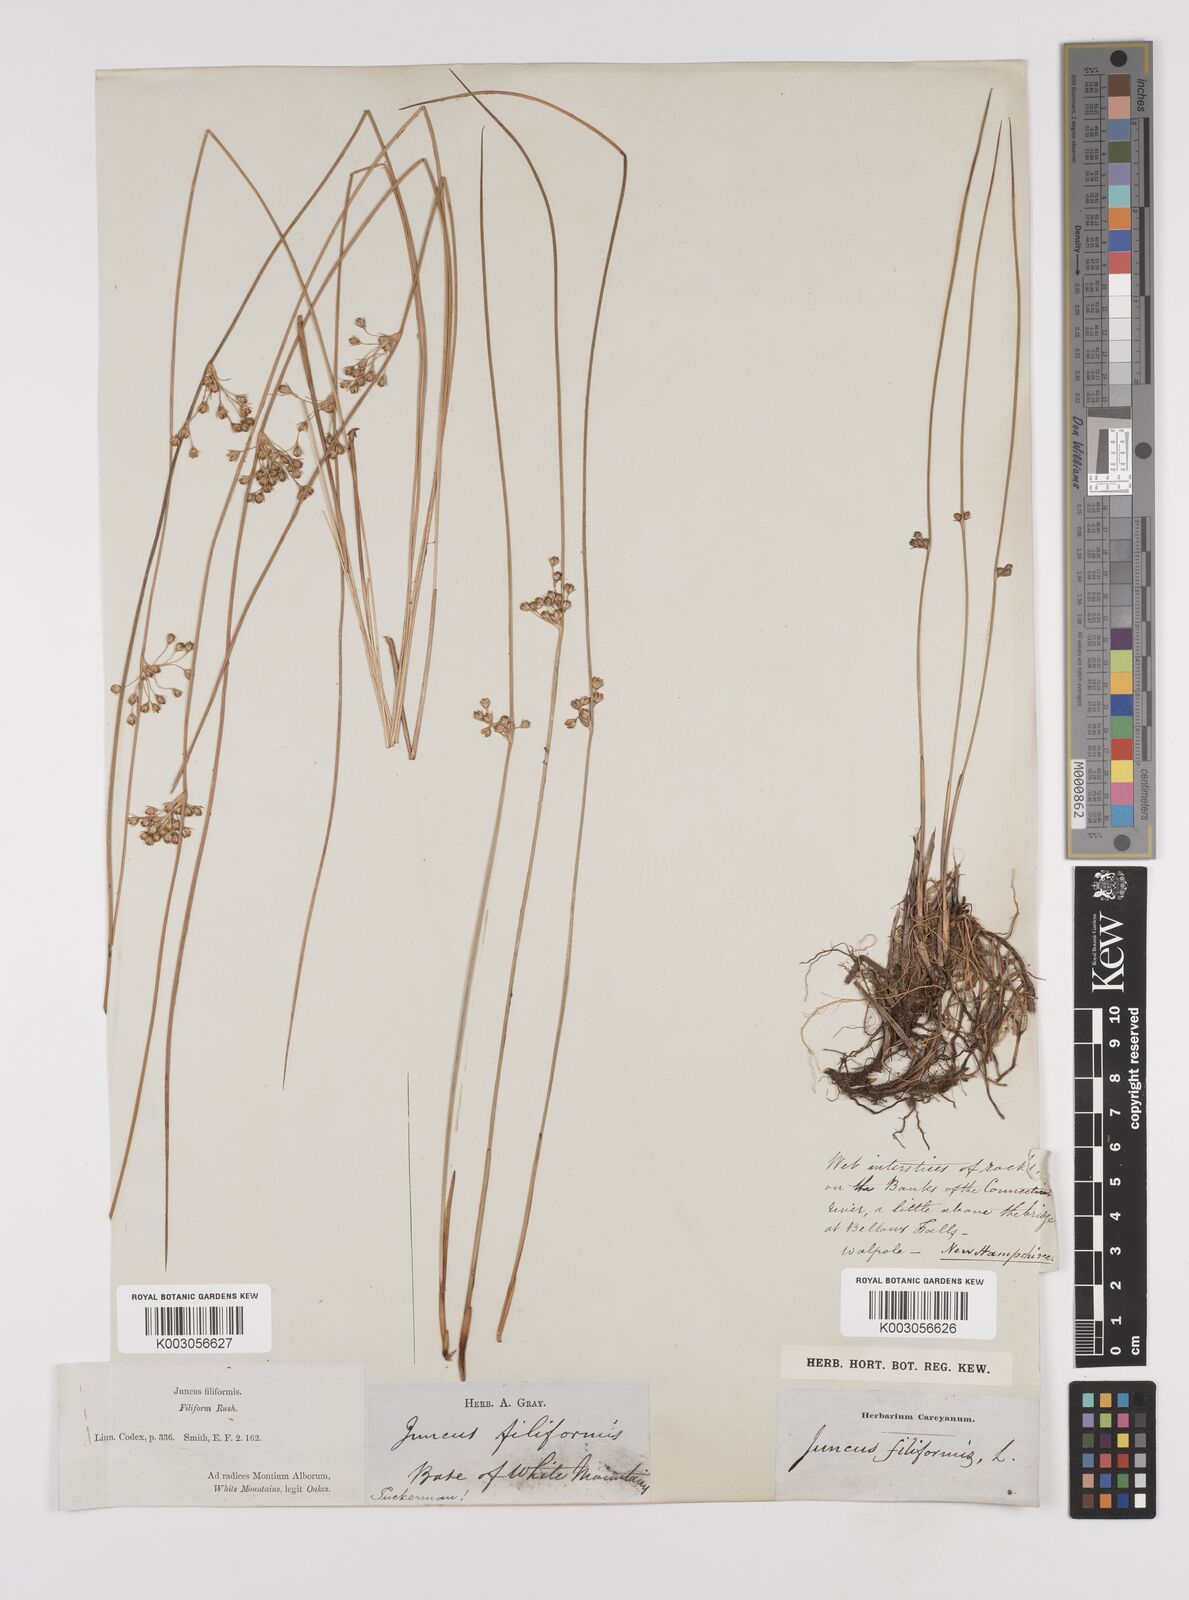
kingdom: Plantae
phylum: Tracheophyta
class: Liliopsida
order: Poales
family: Juncaceae
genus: Juncus
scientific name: Juncus filiformis
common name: Thread rush
